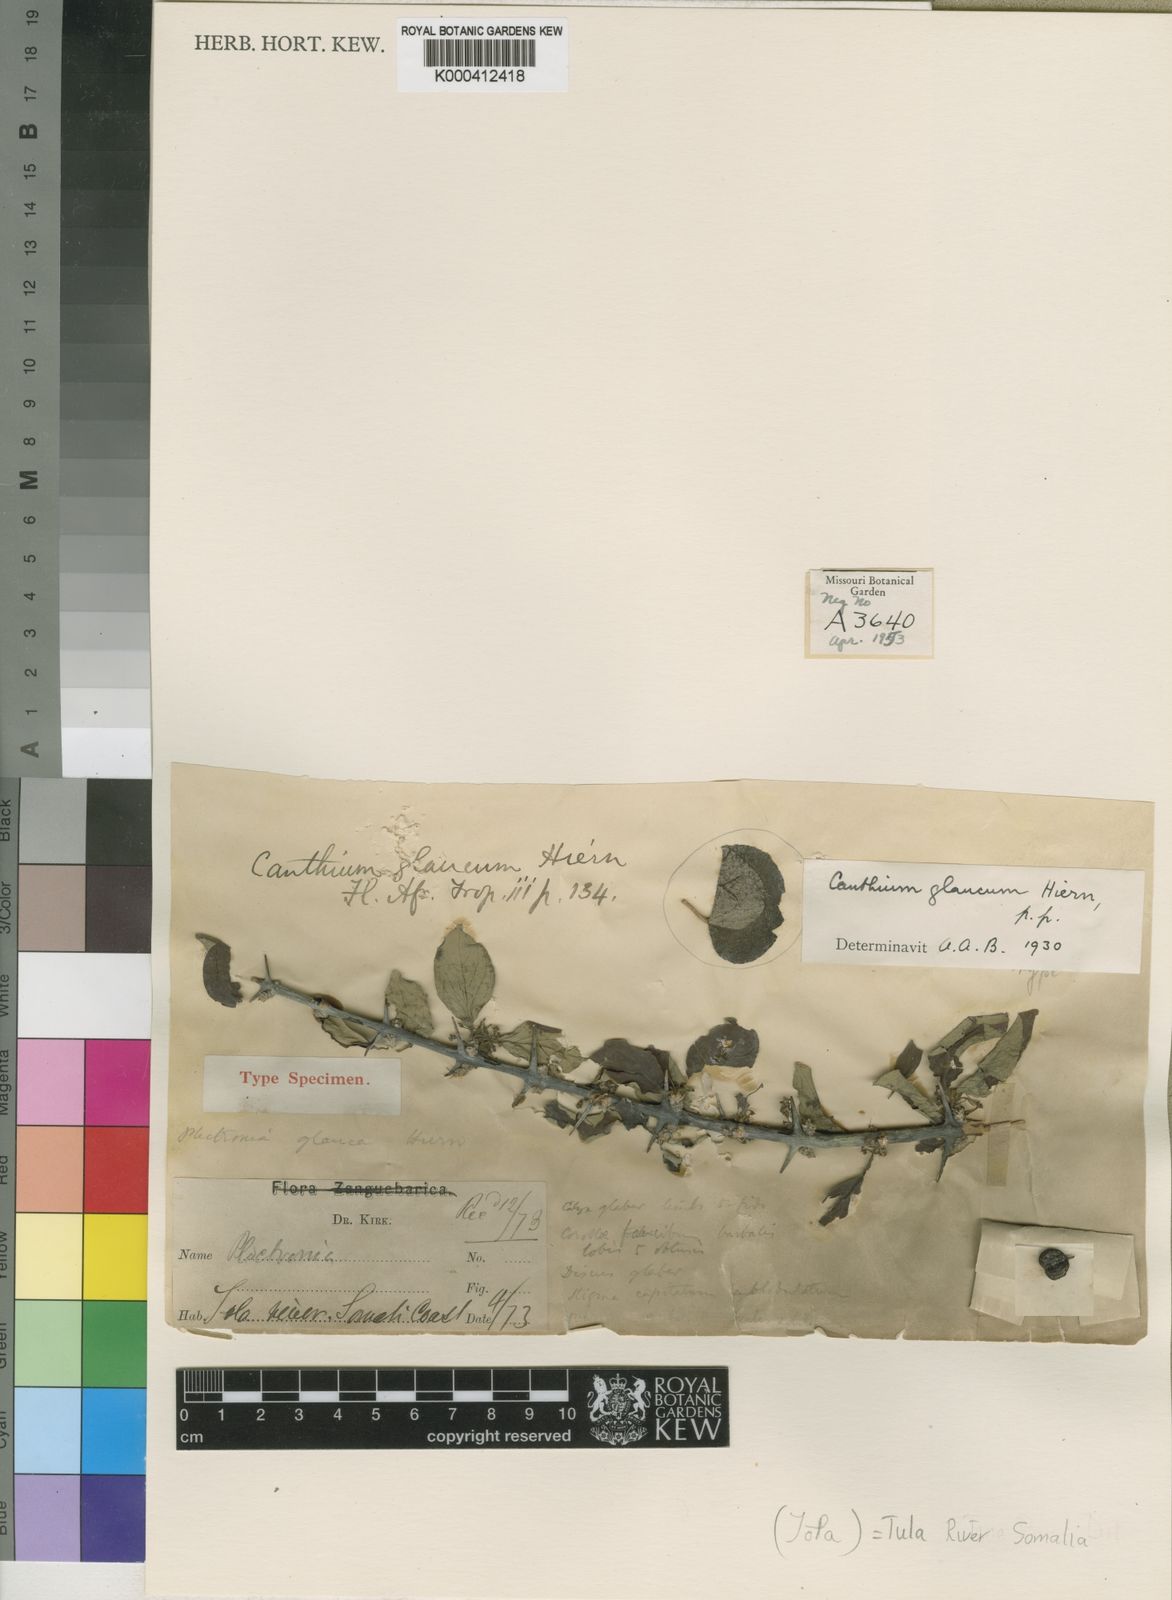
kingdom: Plantae
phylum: Tracheophyta
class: Magnoliopsida
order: Gentianales
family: Rubiaceae
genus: Canthium
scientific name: Canthium glaucum
